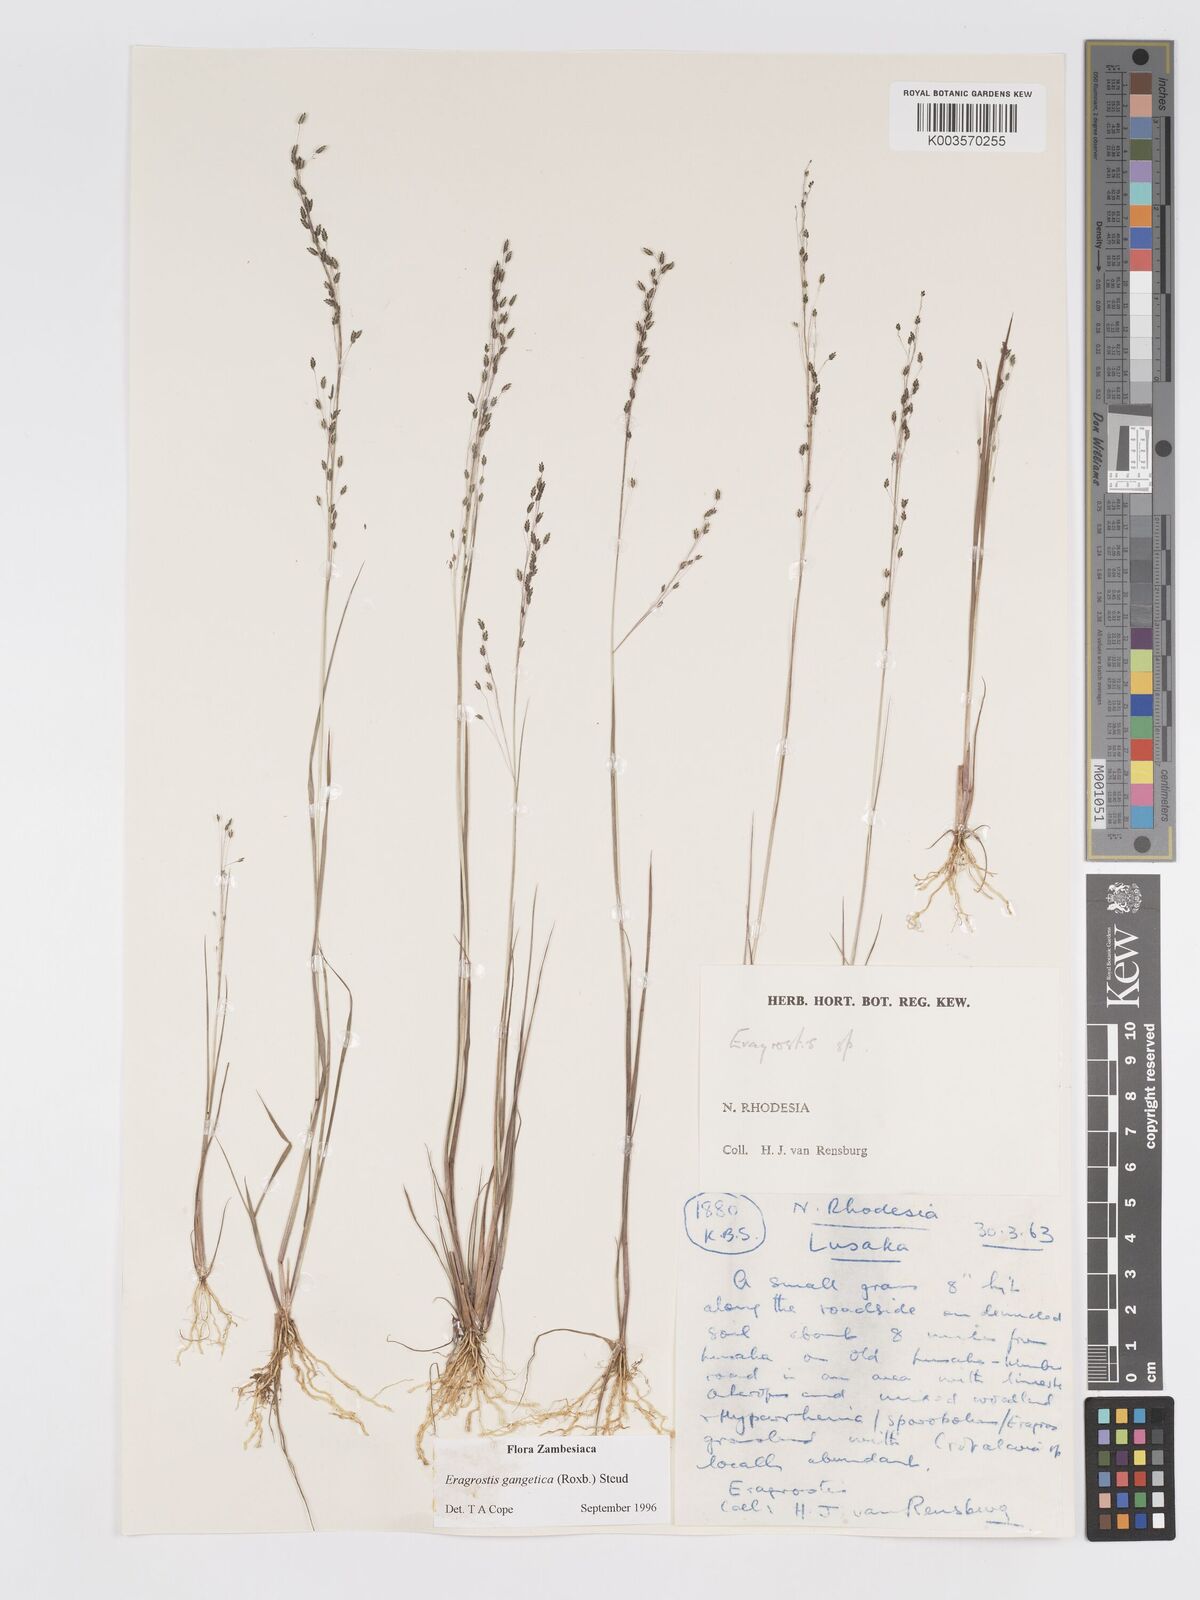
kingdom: Plantae
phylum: Tracheophyta
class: Liliopsida
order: Poales
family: Poaceae
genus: Eragrostis
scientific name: Eragrostis gangetica
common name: Slimflower lovegrass
